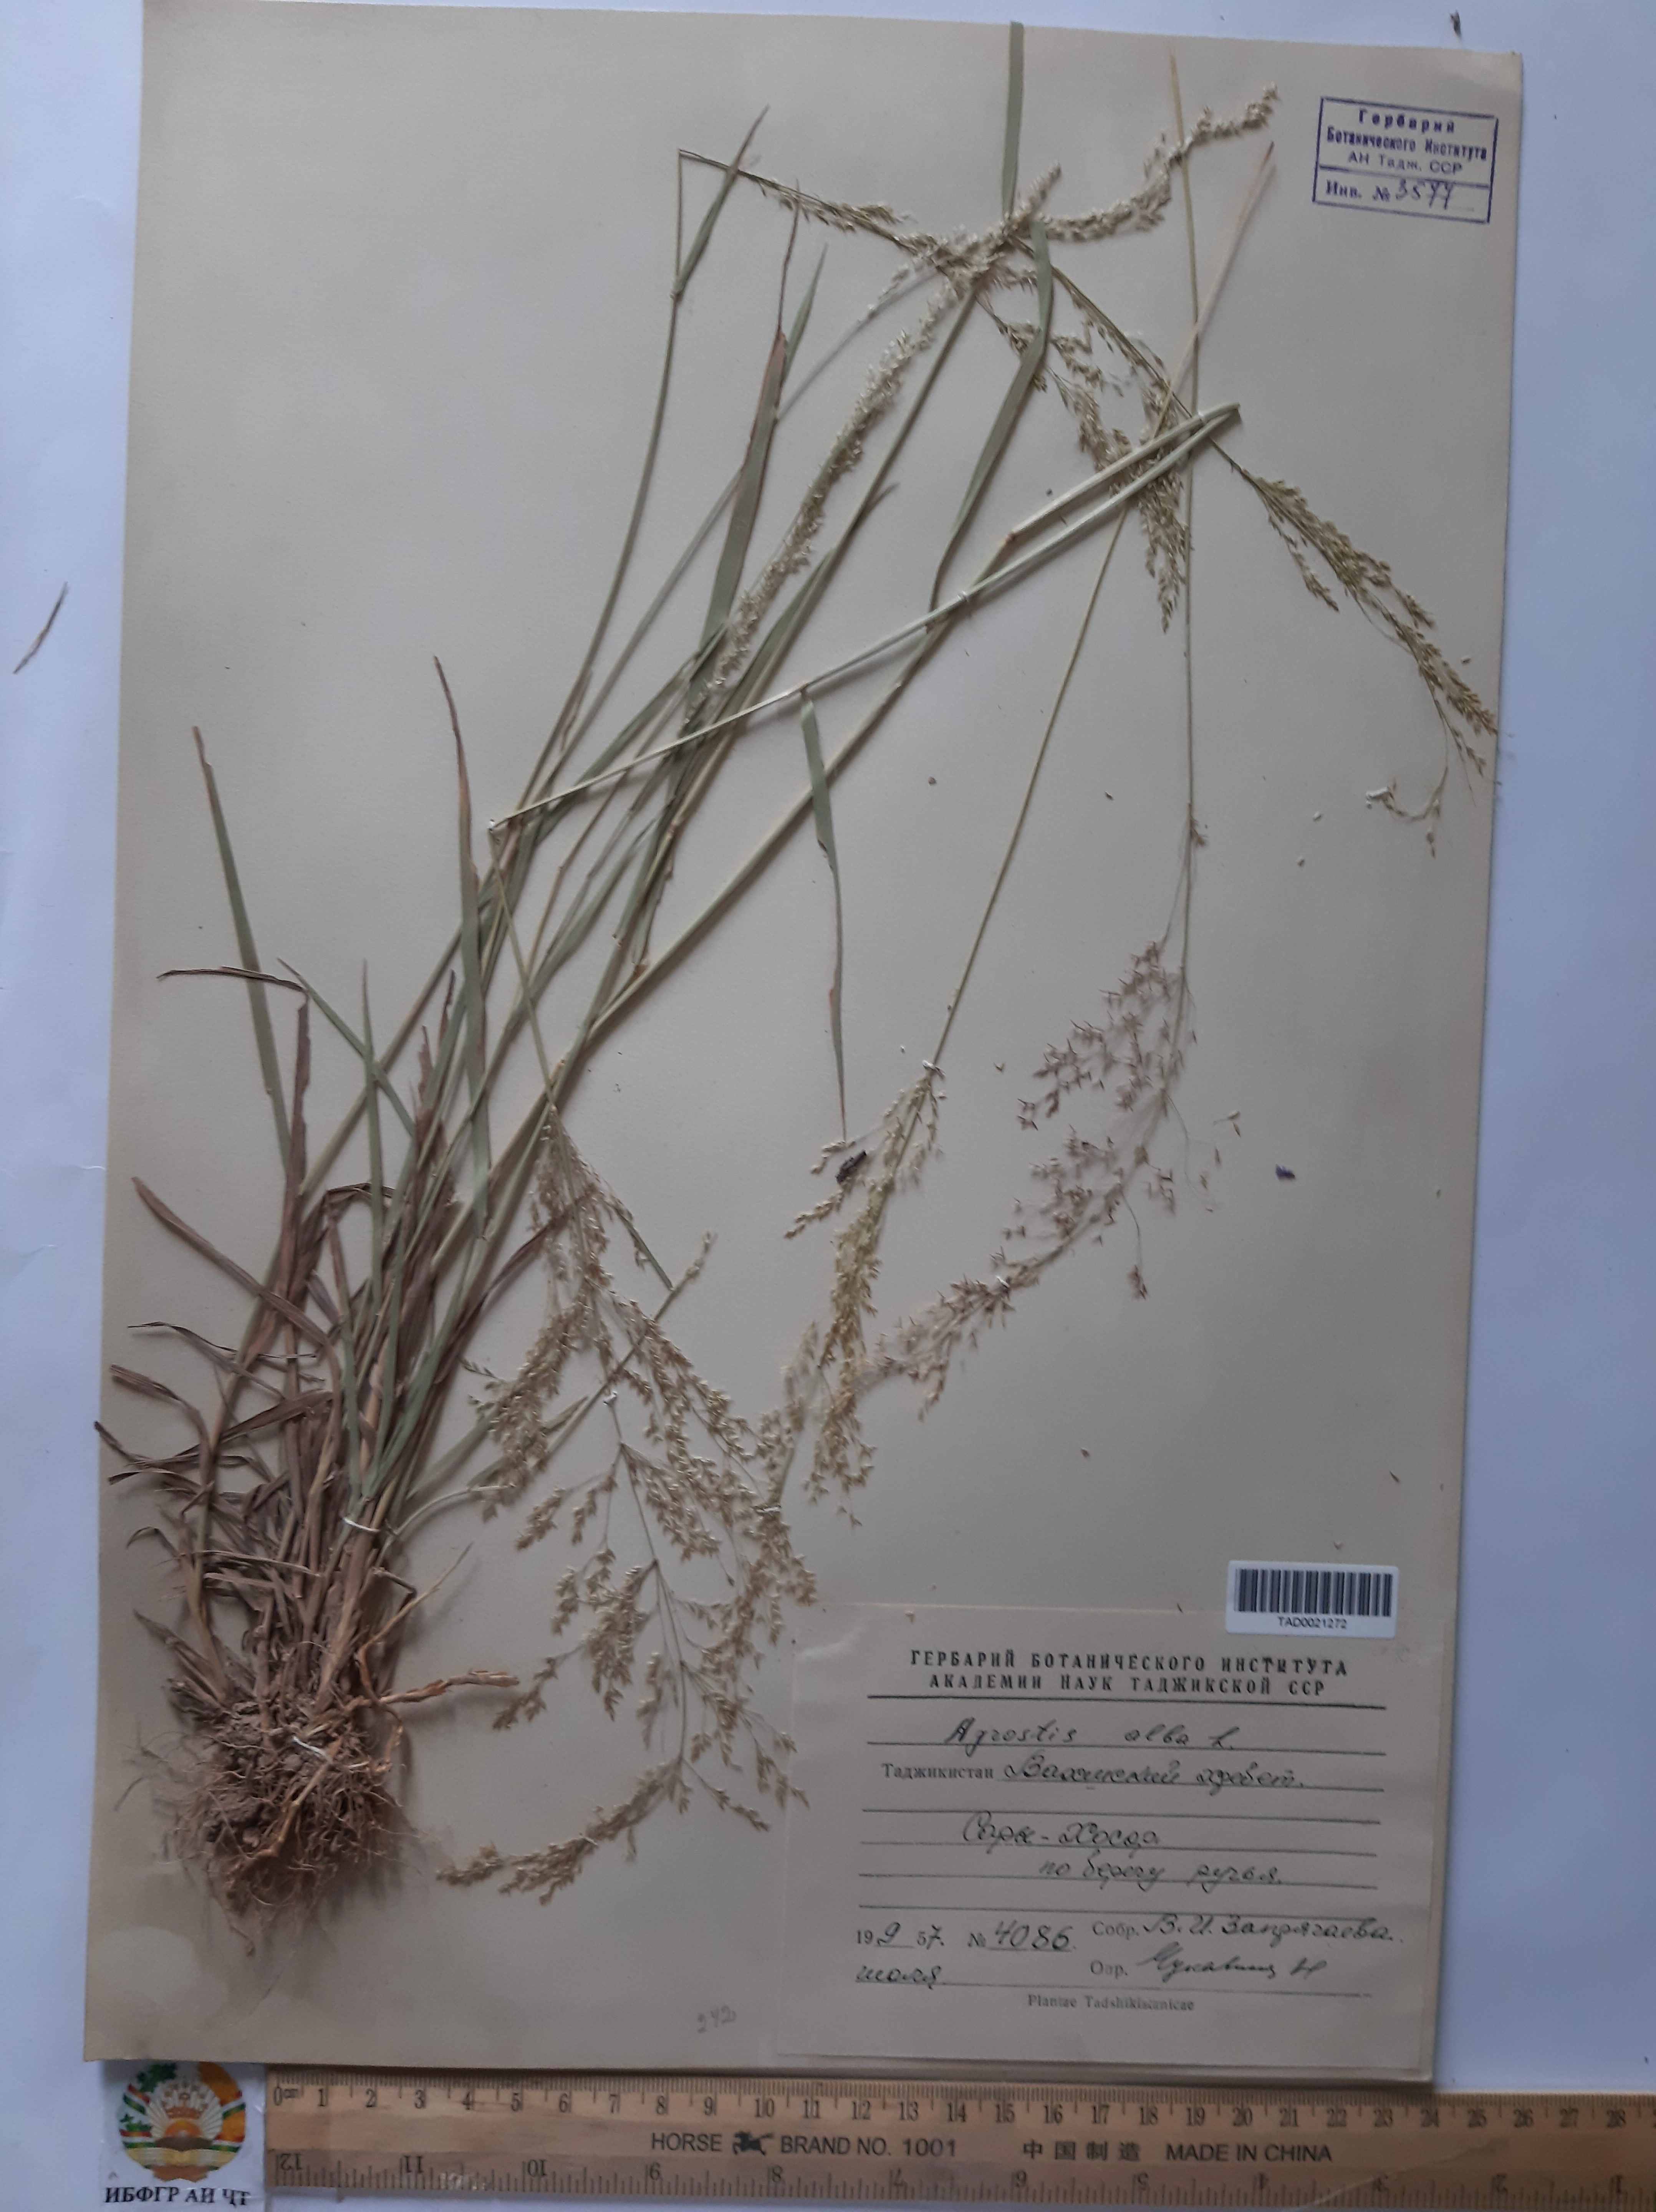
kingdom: Plantae
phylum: Tracheophyta
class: Liliopsida
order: Poales
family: Poaceae
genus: Poa
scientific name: Poa nemoralis
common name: Wood bluegrass
